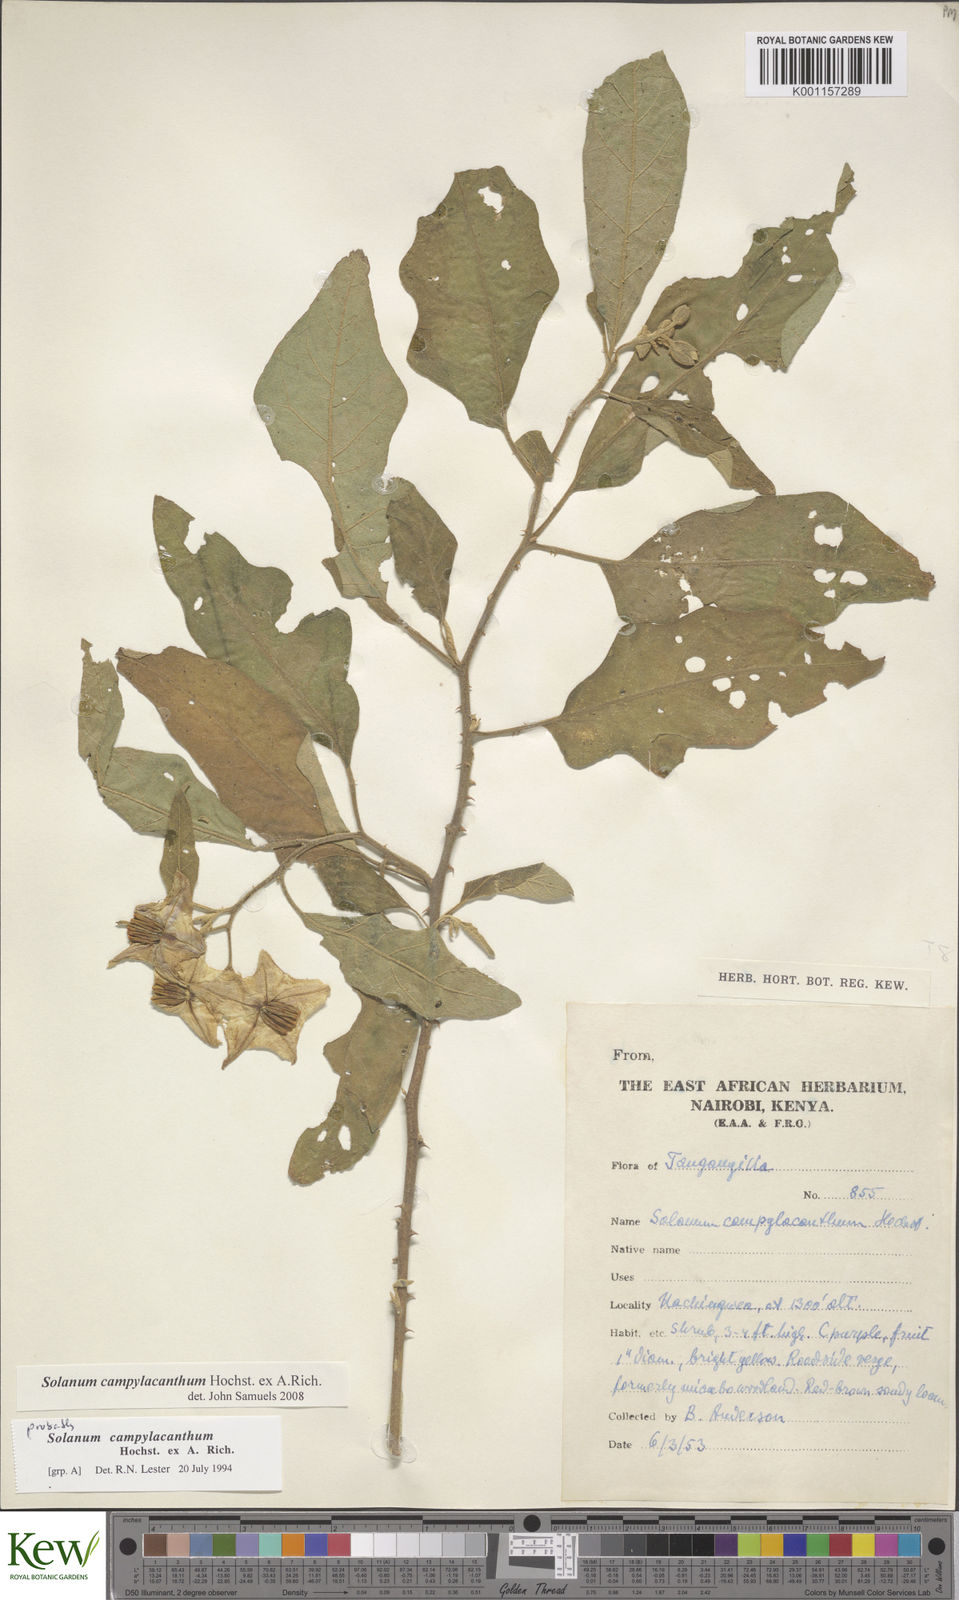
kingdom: Plantae
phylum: Tracheophyta
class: Magnoliopsida
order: Solanales
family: Solanaceae
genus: Solanum
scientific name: Solanum campylacanthum
